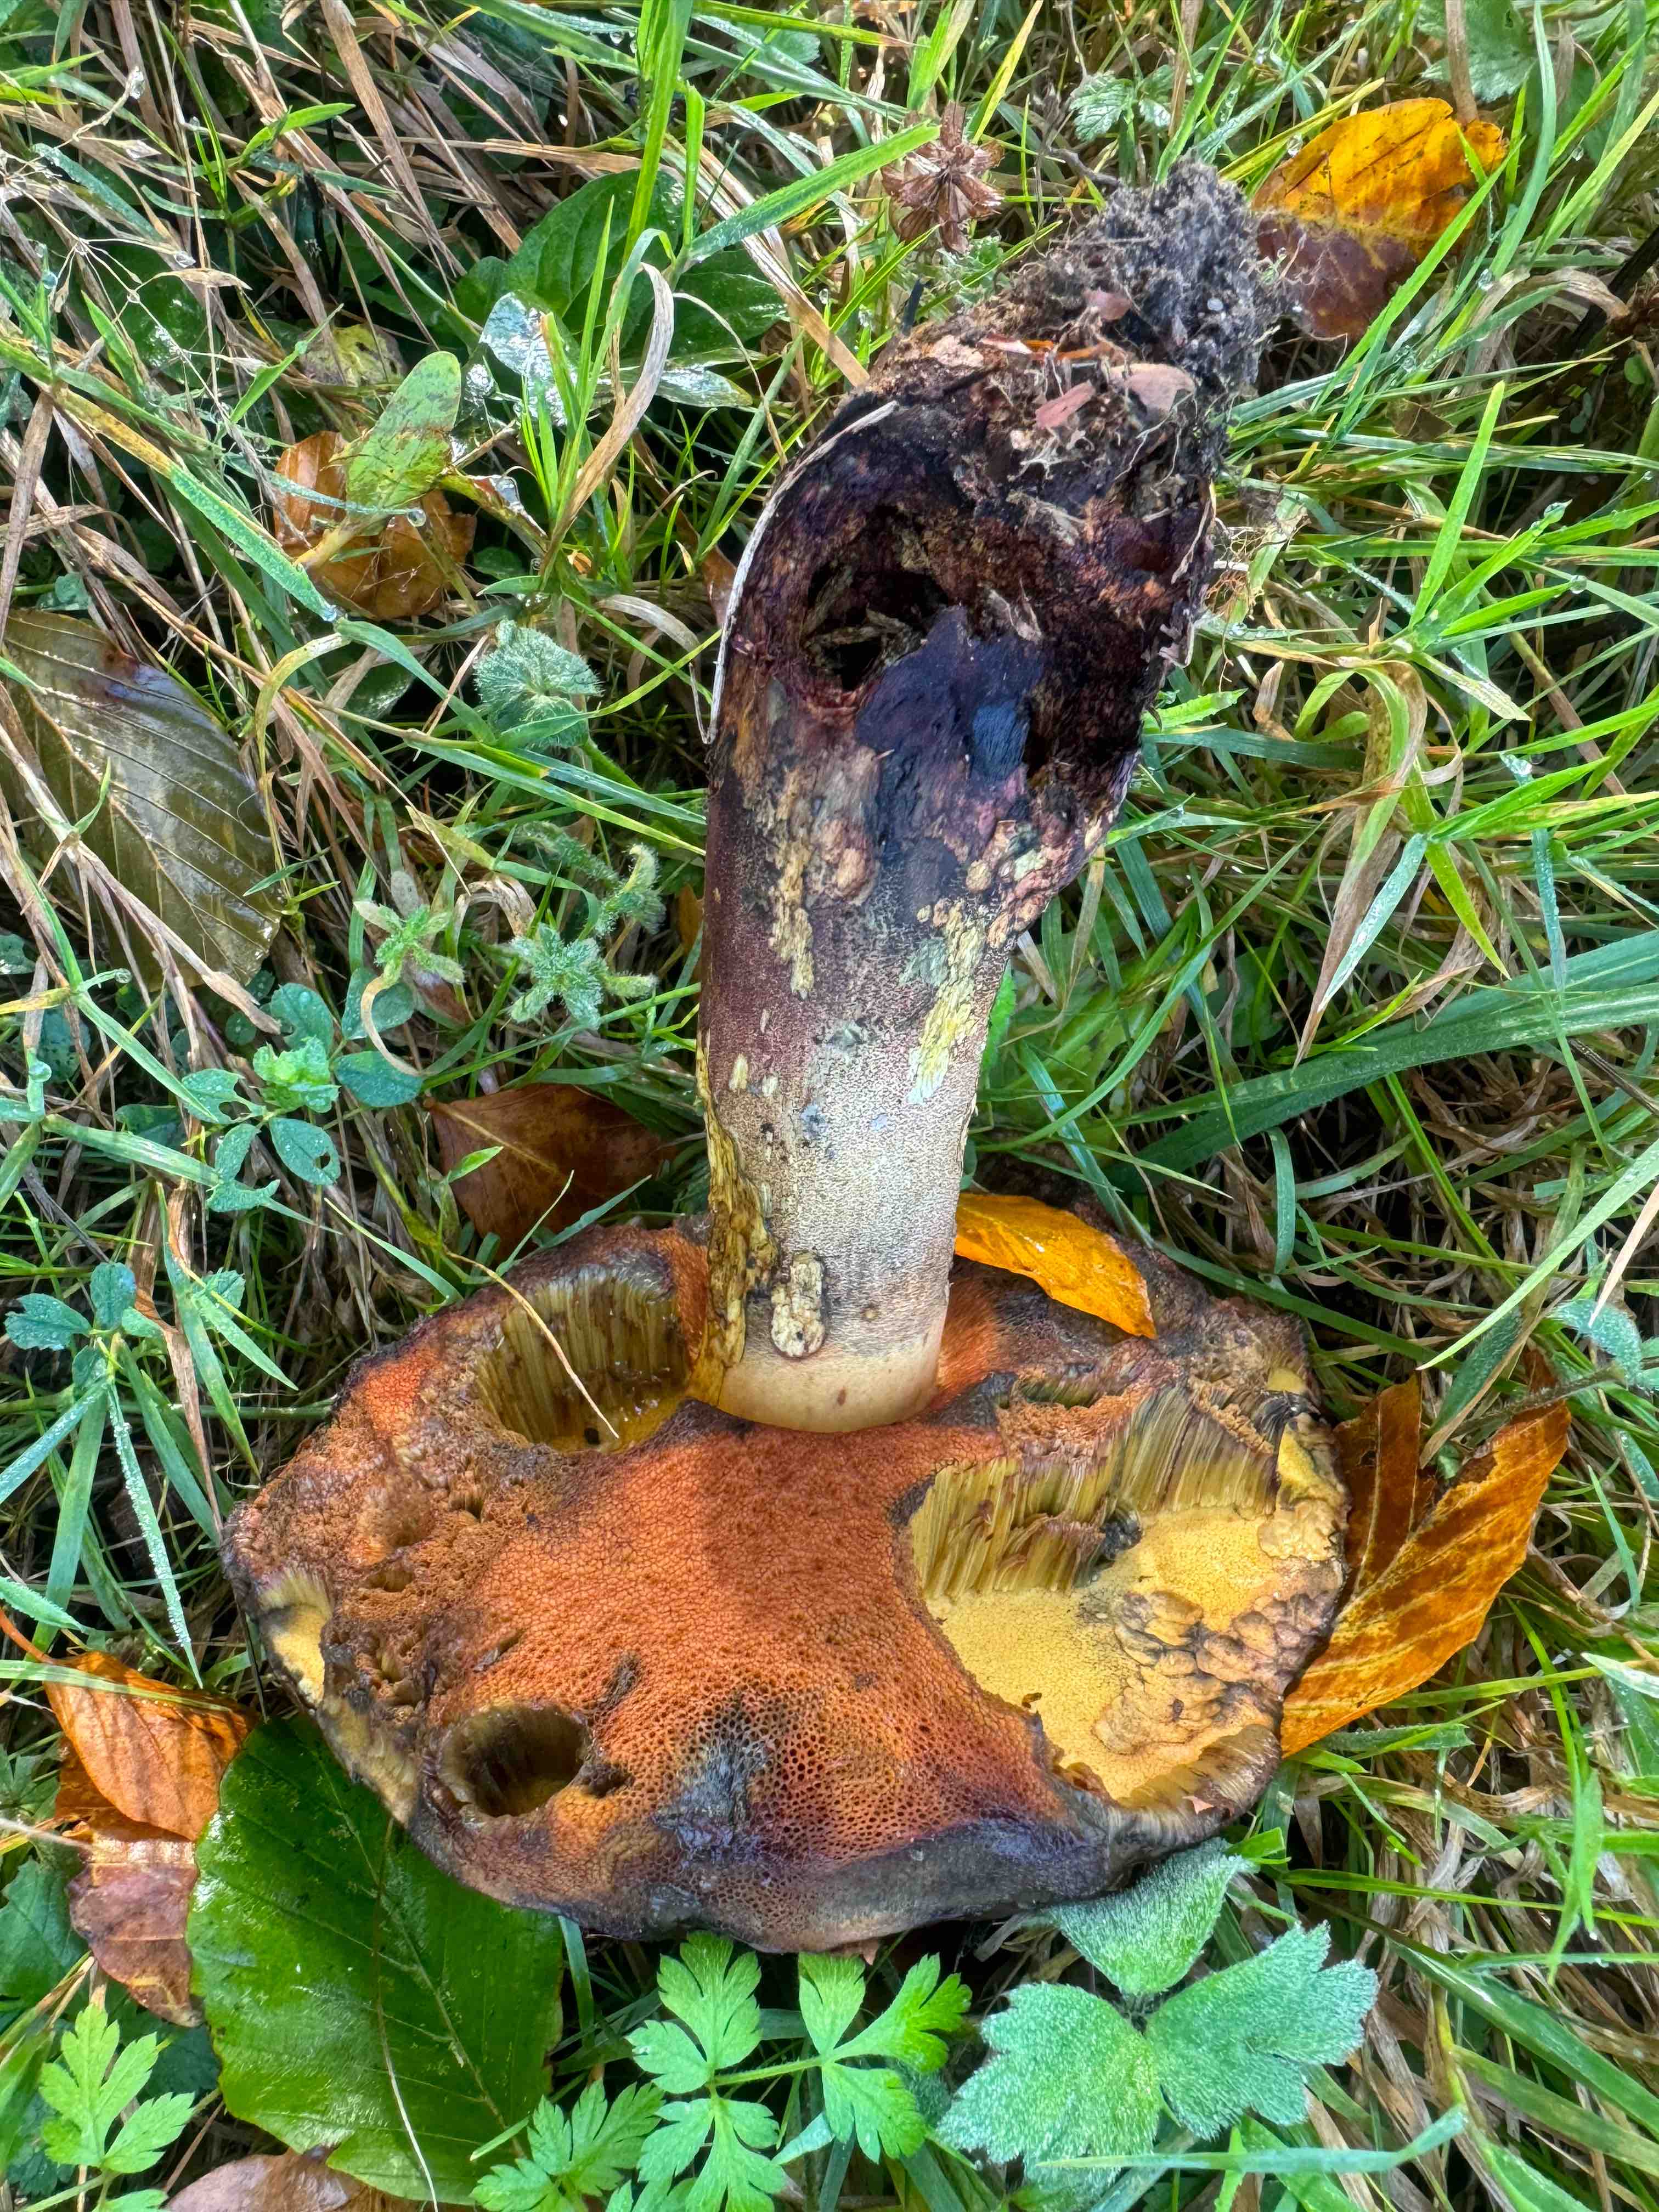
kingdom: Fungi
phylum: Basidiomycota
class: Agaricomycetes
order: Boletales
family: Boletaceae
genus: Neoboletus
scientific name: Neoboletus erythropus
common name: punktstokket indigorørhat
